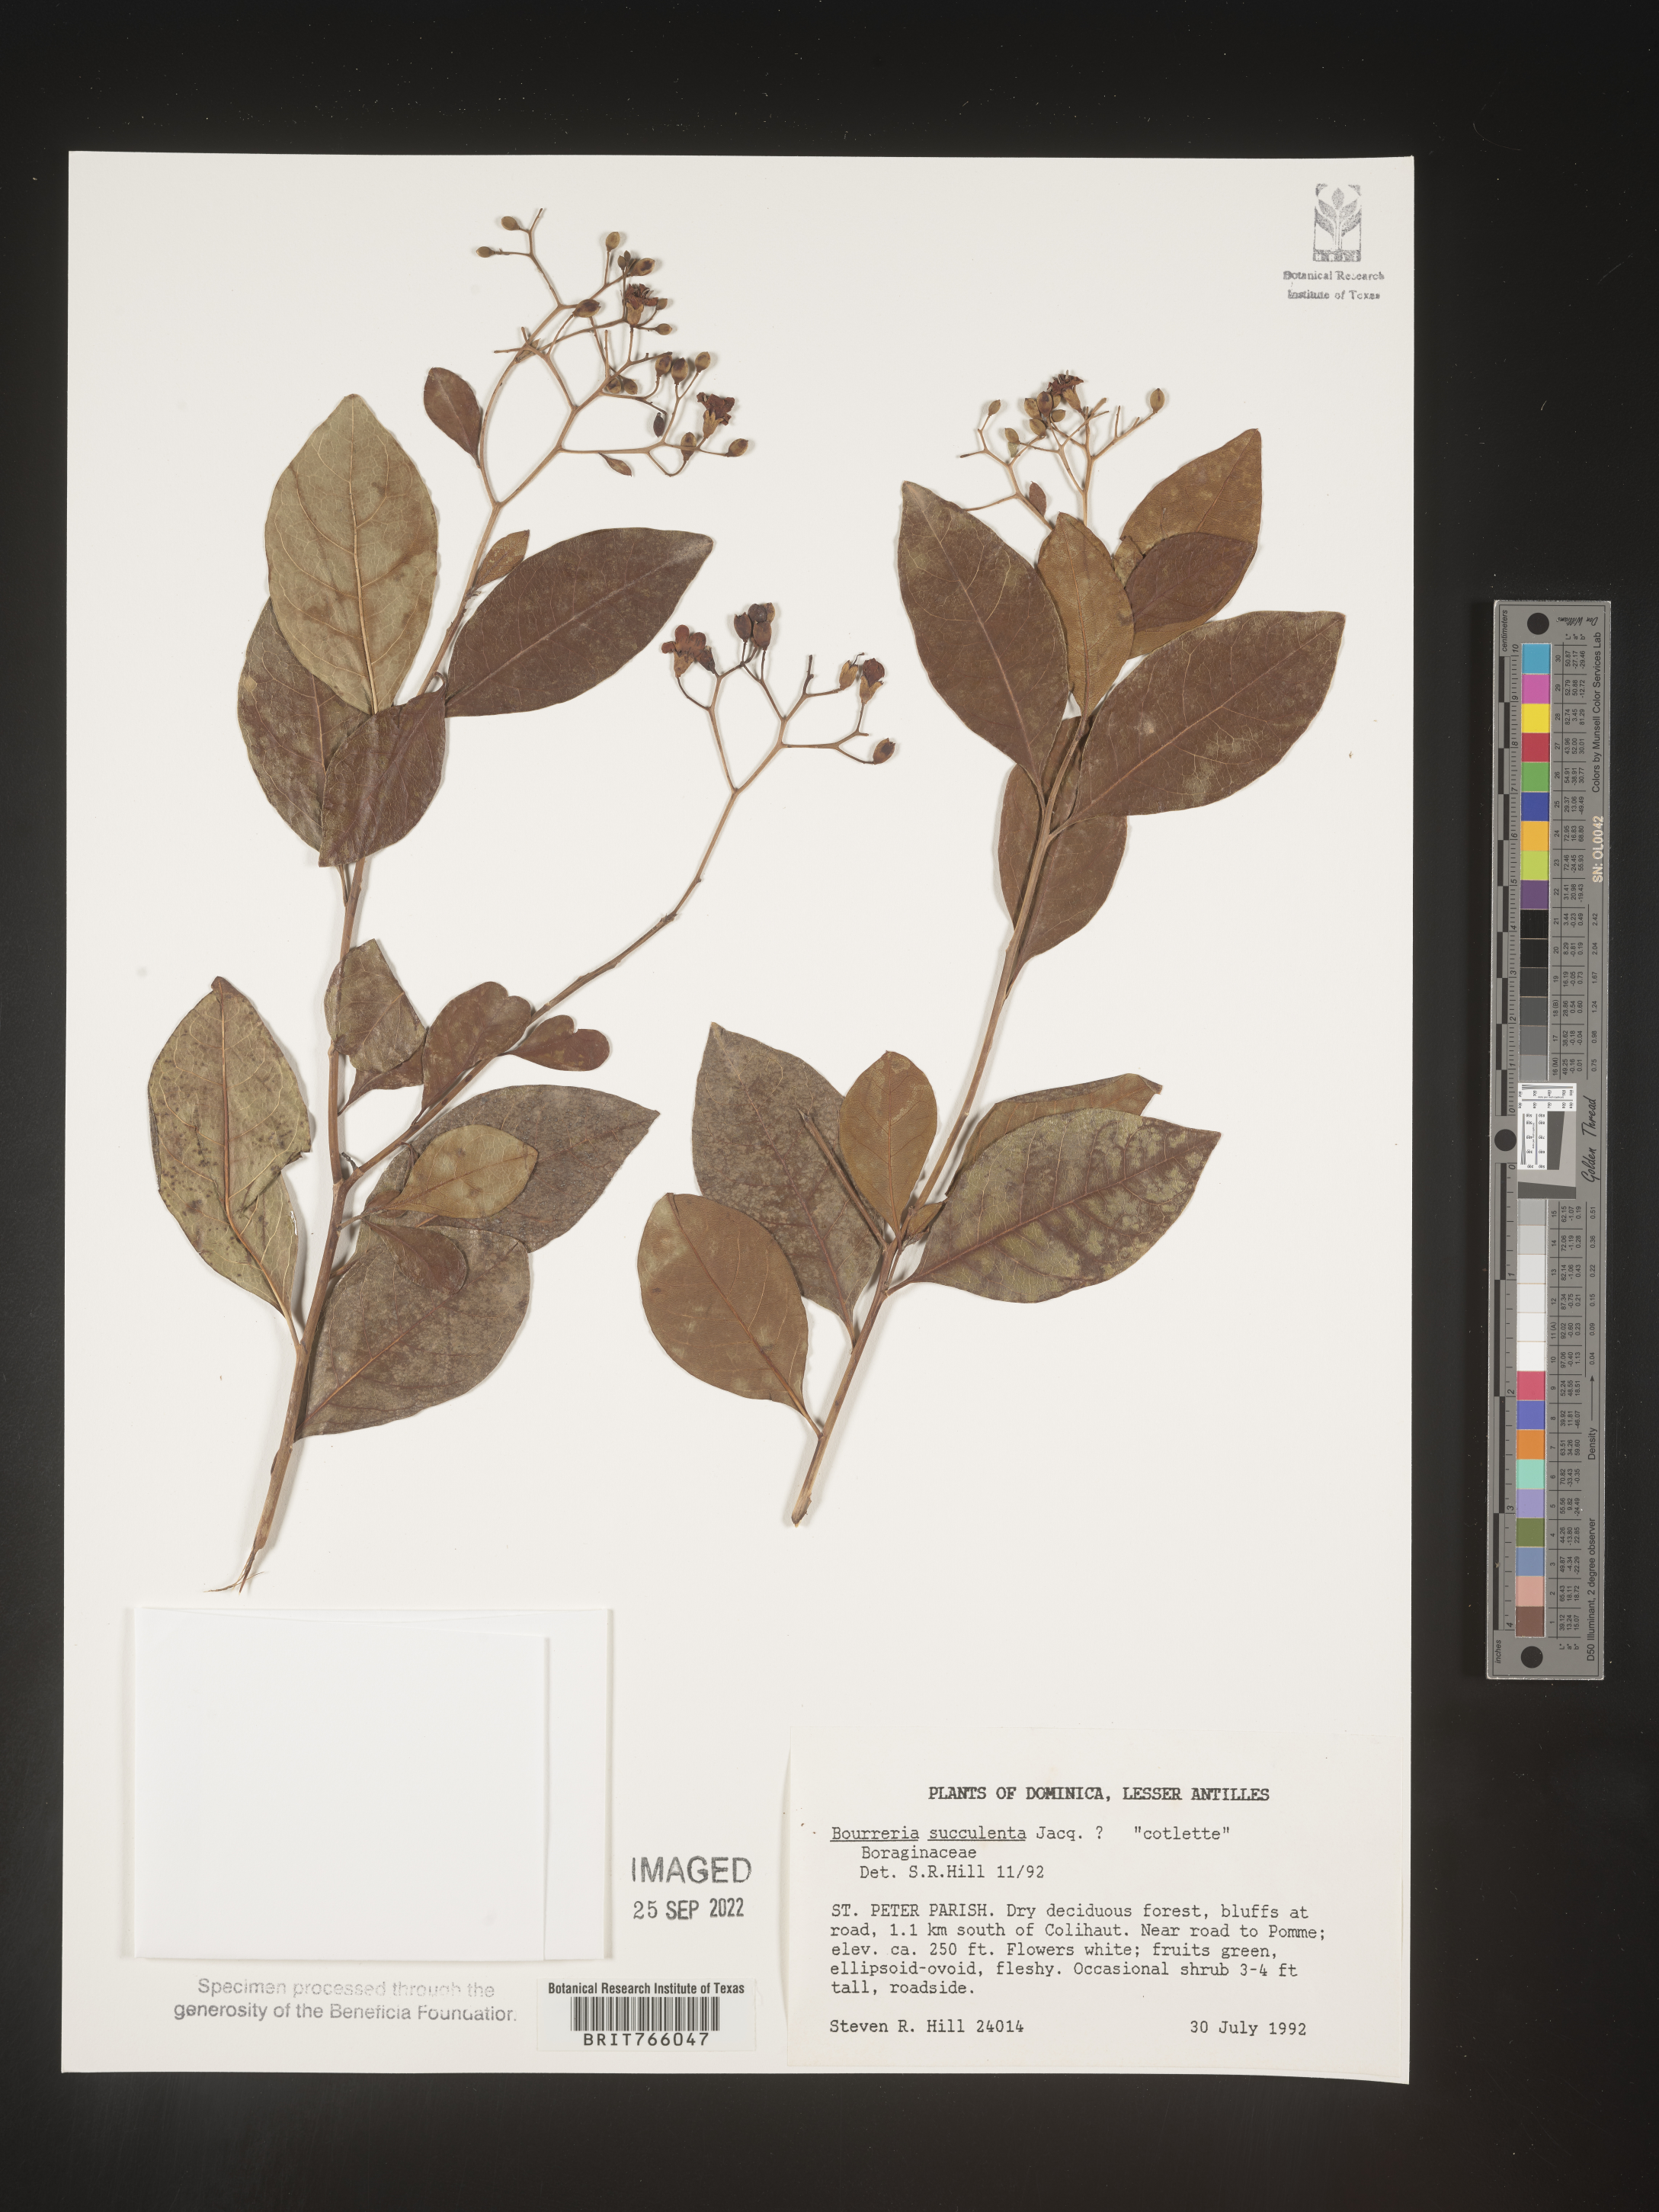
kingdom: Plantae
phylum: Tracheophyta
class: Magnoliopsida
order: Boraginales
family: Ehretiaceae
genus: Bourreria
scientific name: Bourreria
